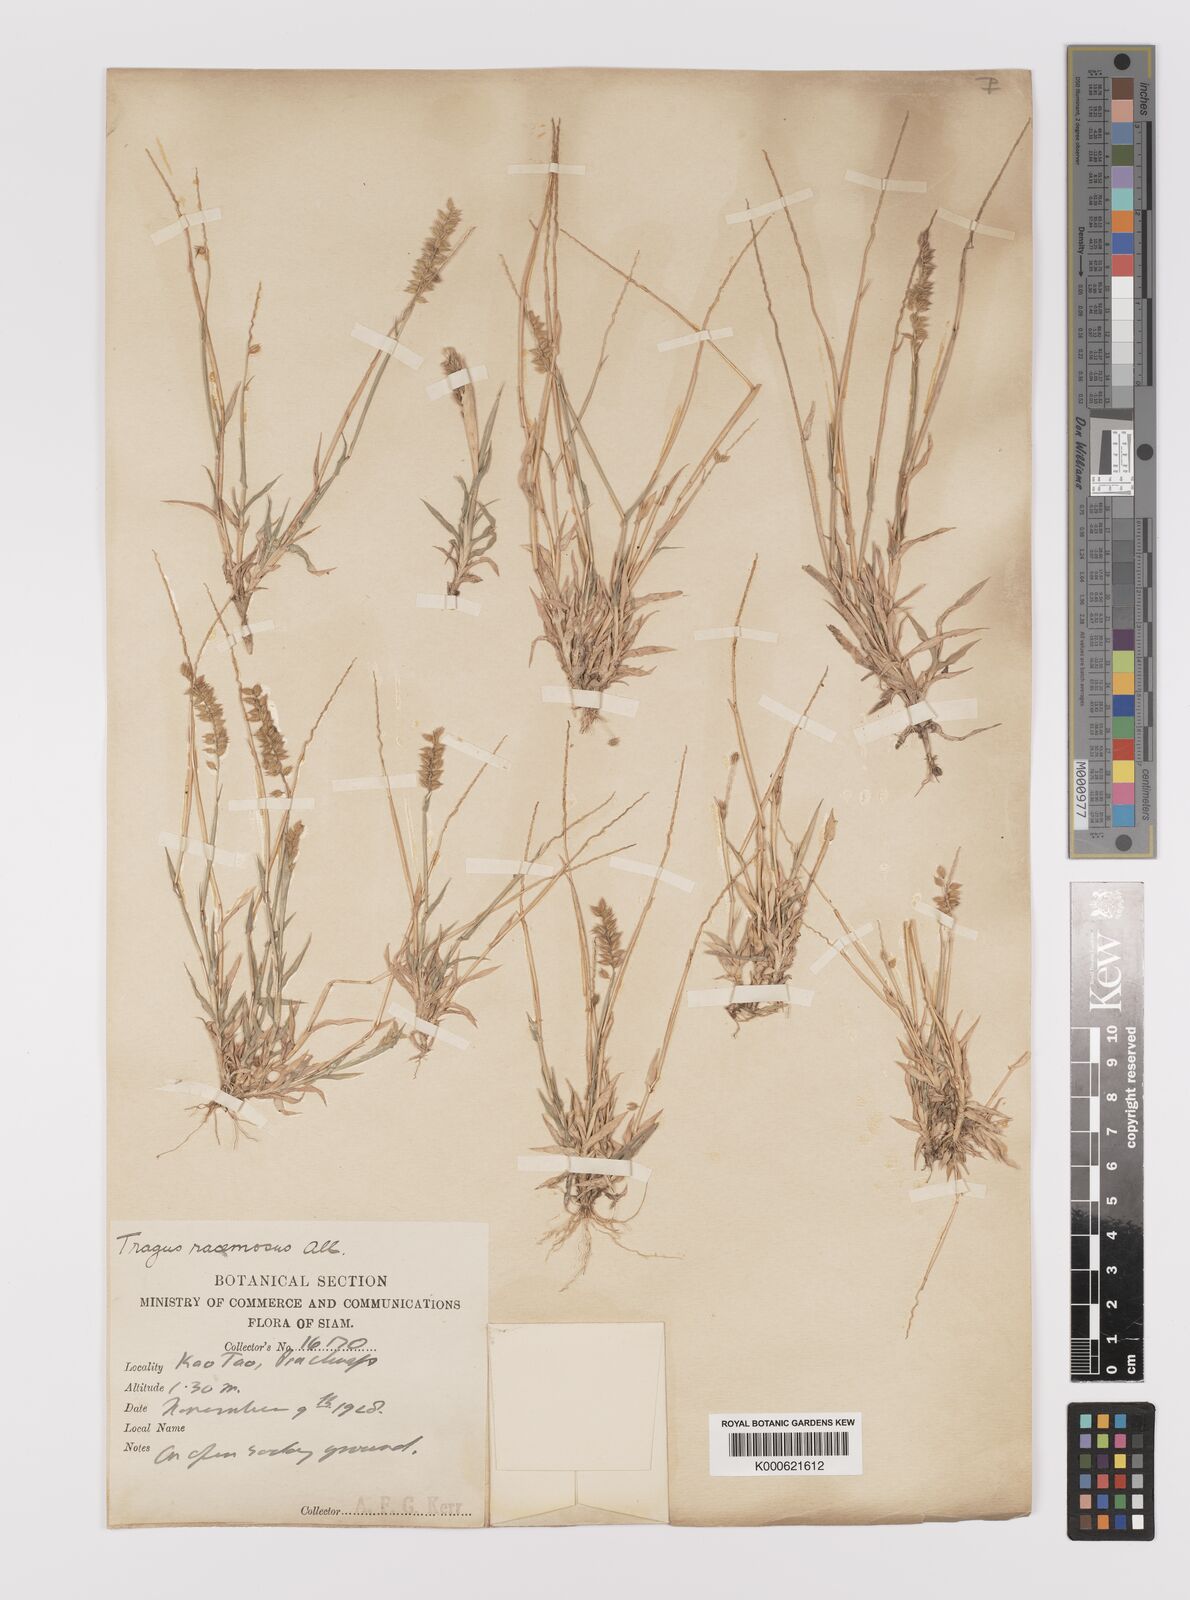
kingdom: Plantae
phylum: Tracheophyta
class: Liliopsida
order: Poales
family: Poaceae
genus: Tragus
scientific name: Tragus mongolorum
